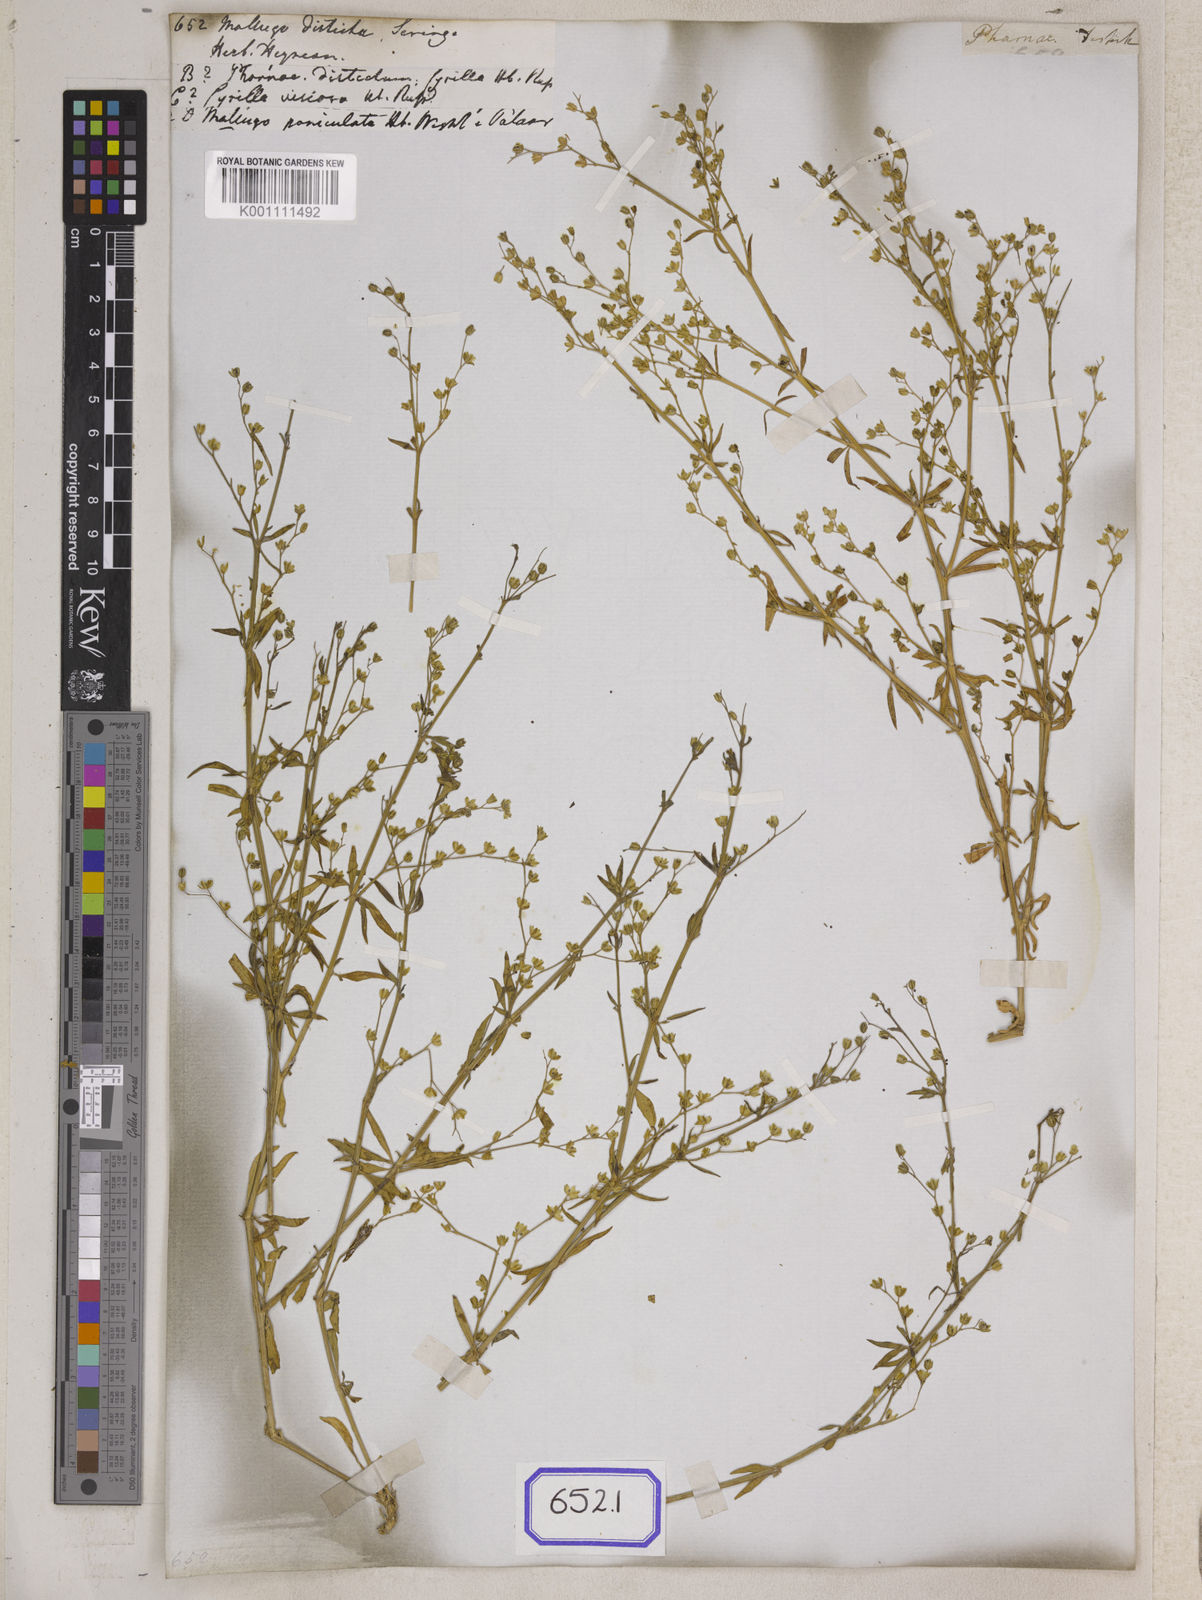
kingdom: Plantae
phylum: Tracheophyta
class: Magnoliopsida
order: Caryophyllales
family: Molluginaceae
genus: Mollugo
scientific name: Mollugo disticha
